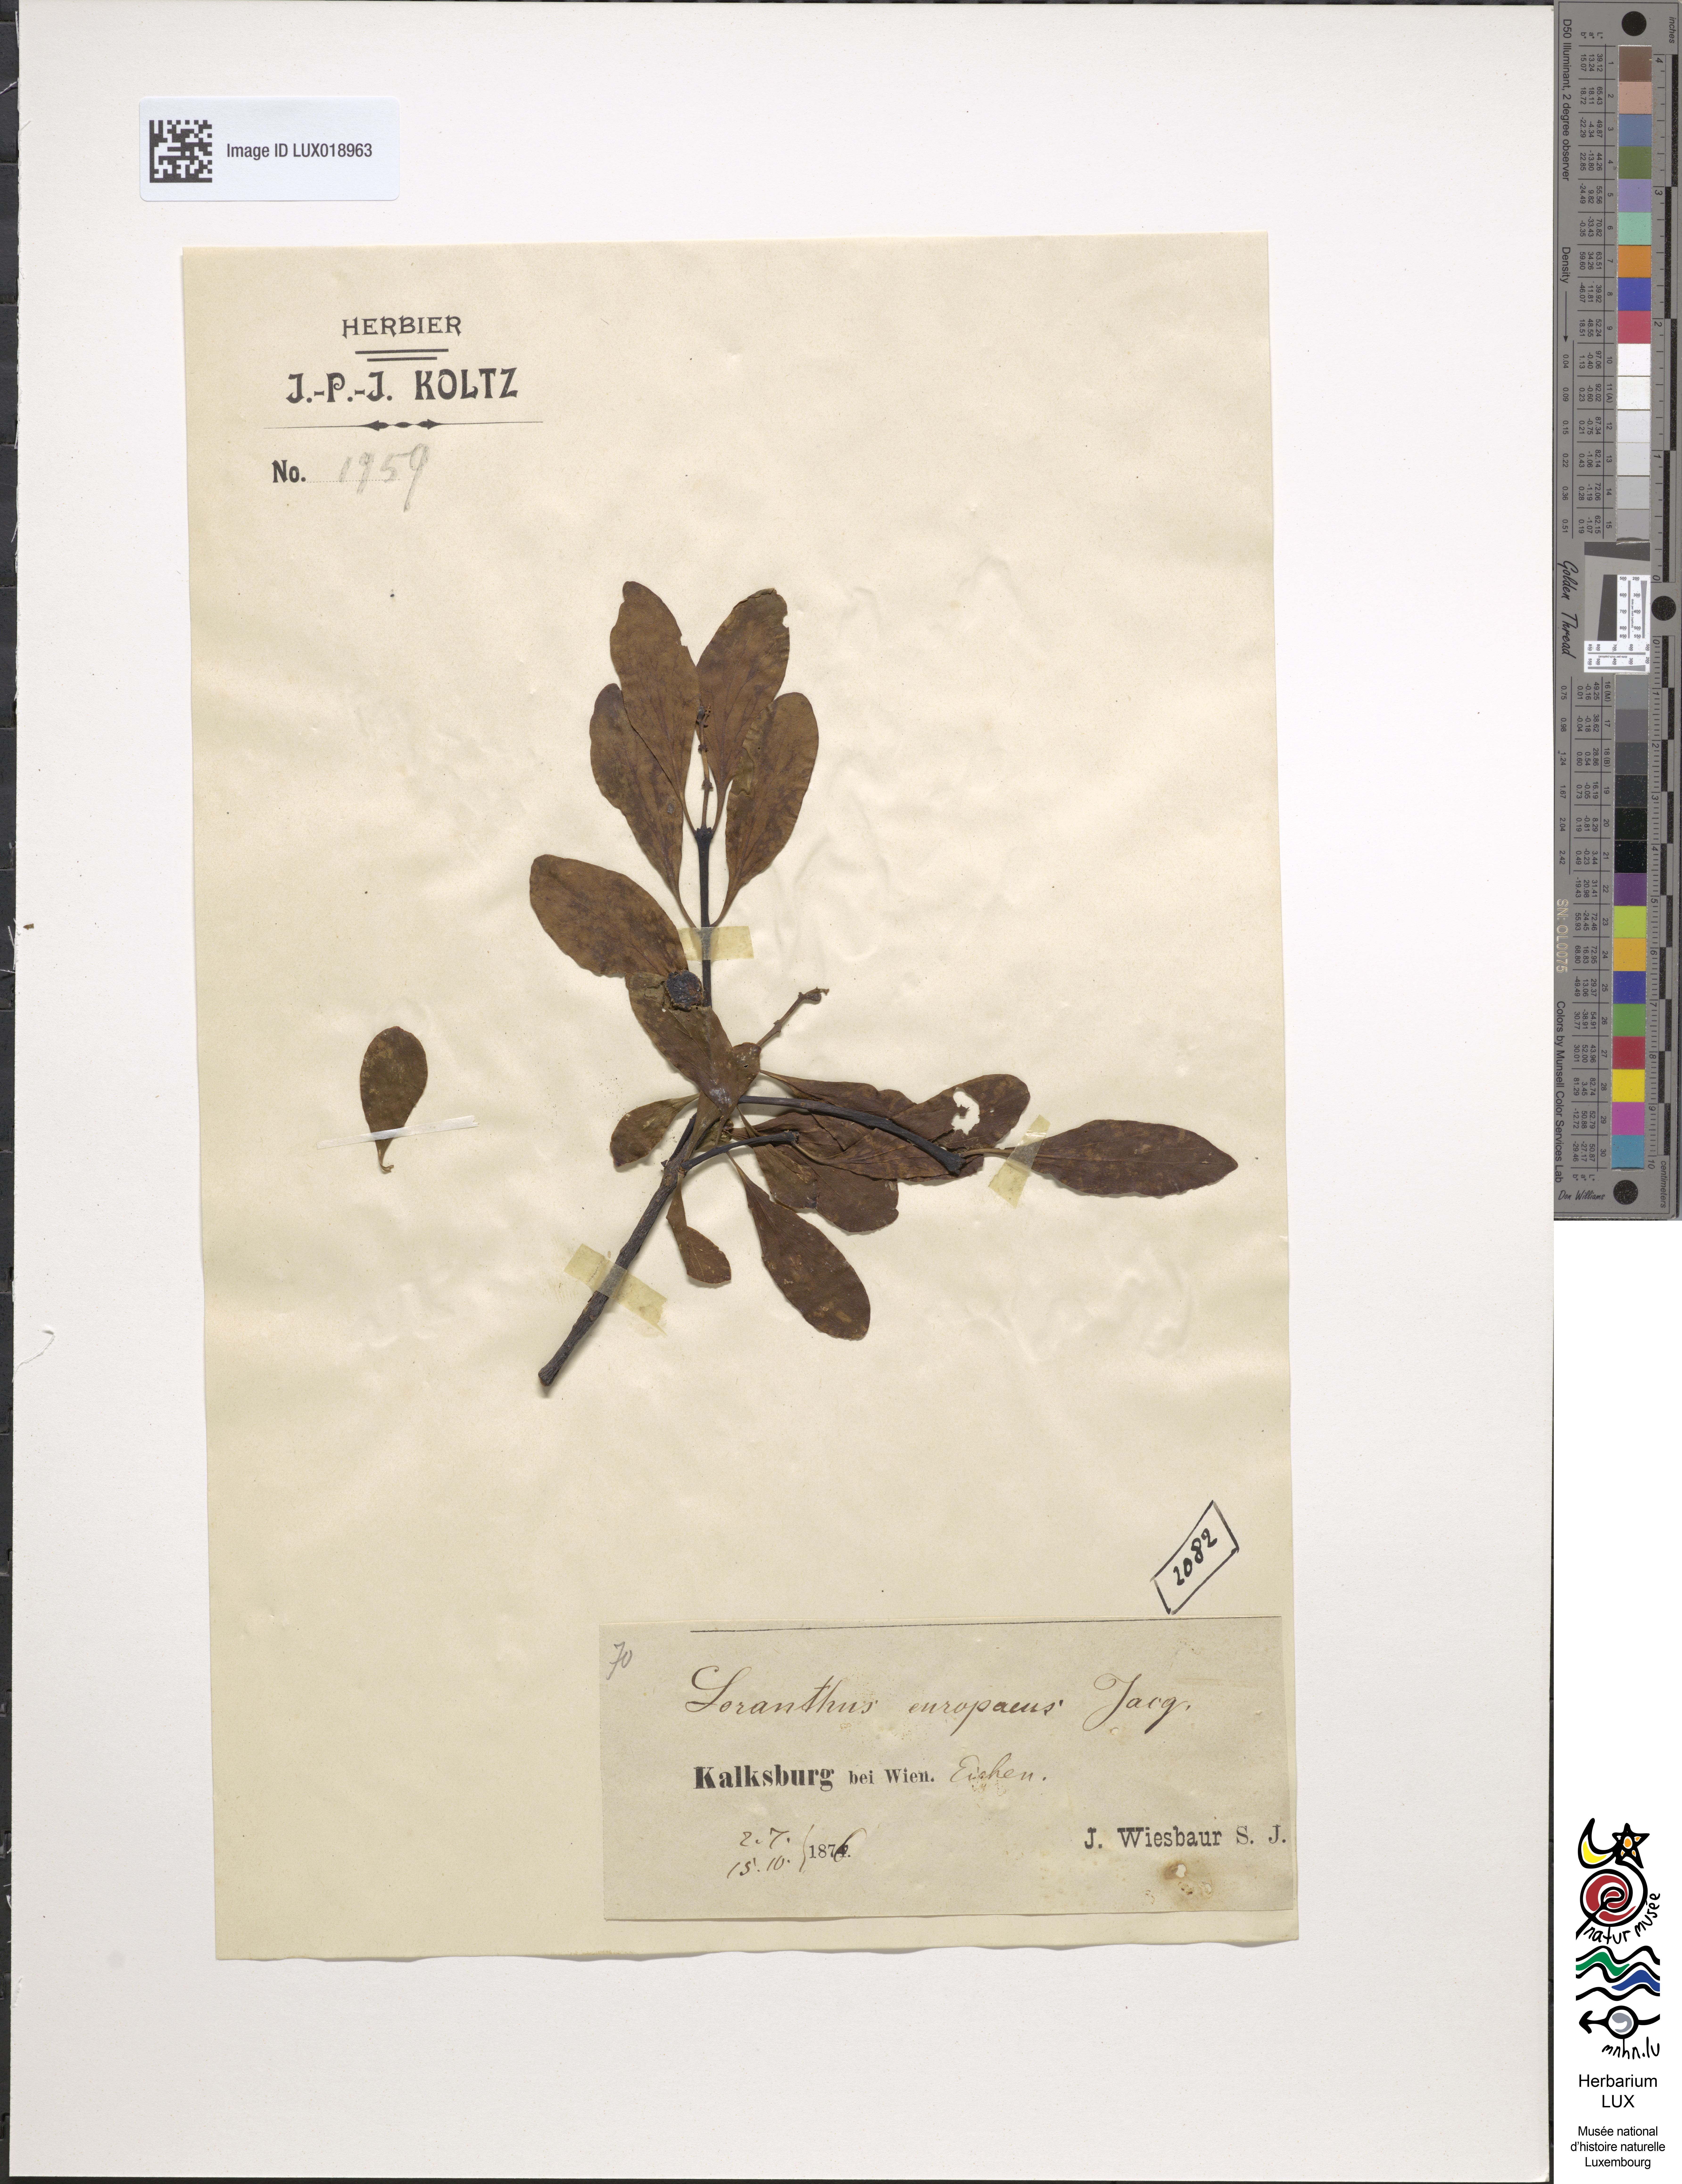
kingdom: Plantae
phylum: Tracheophyta
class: Magnoliopsida
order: Santalales
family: Loranthaceae
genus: Loranthus
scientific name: Loranthus europaeus
